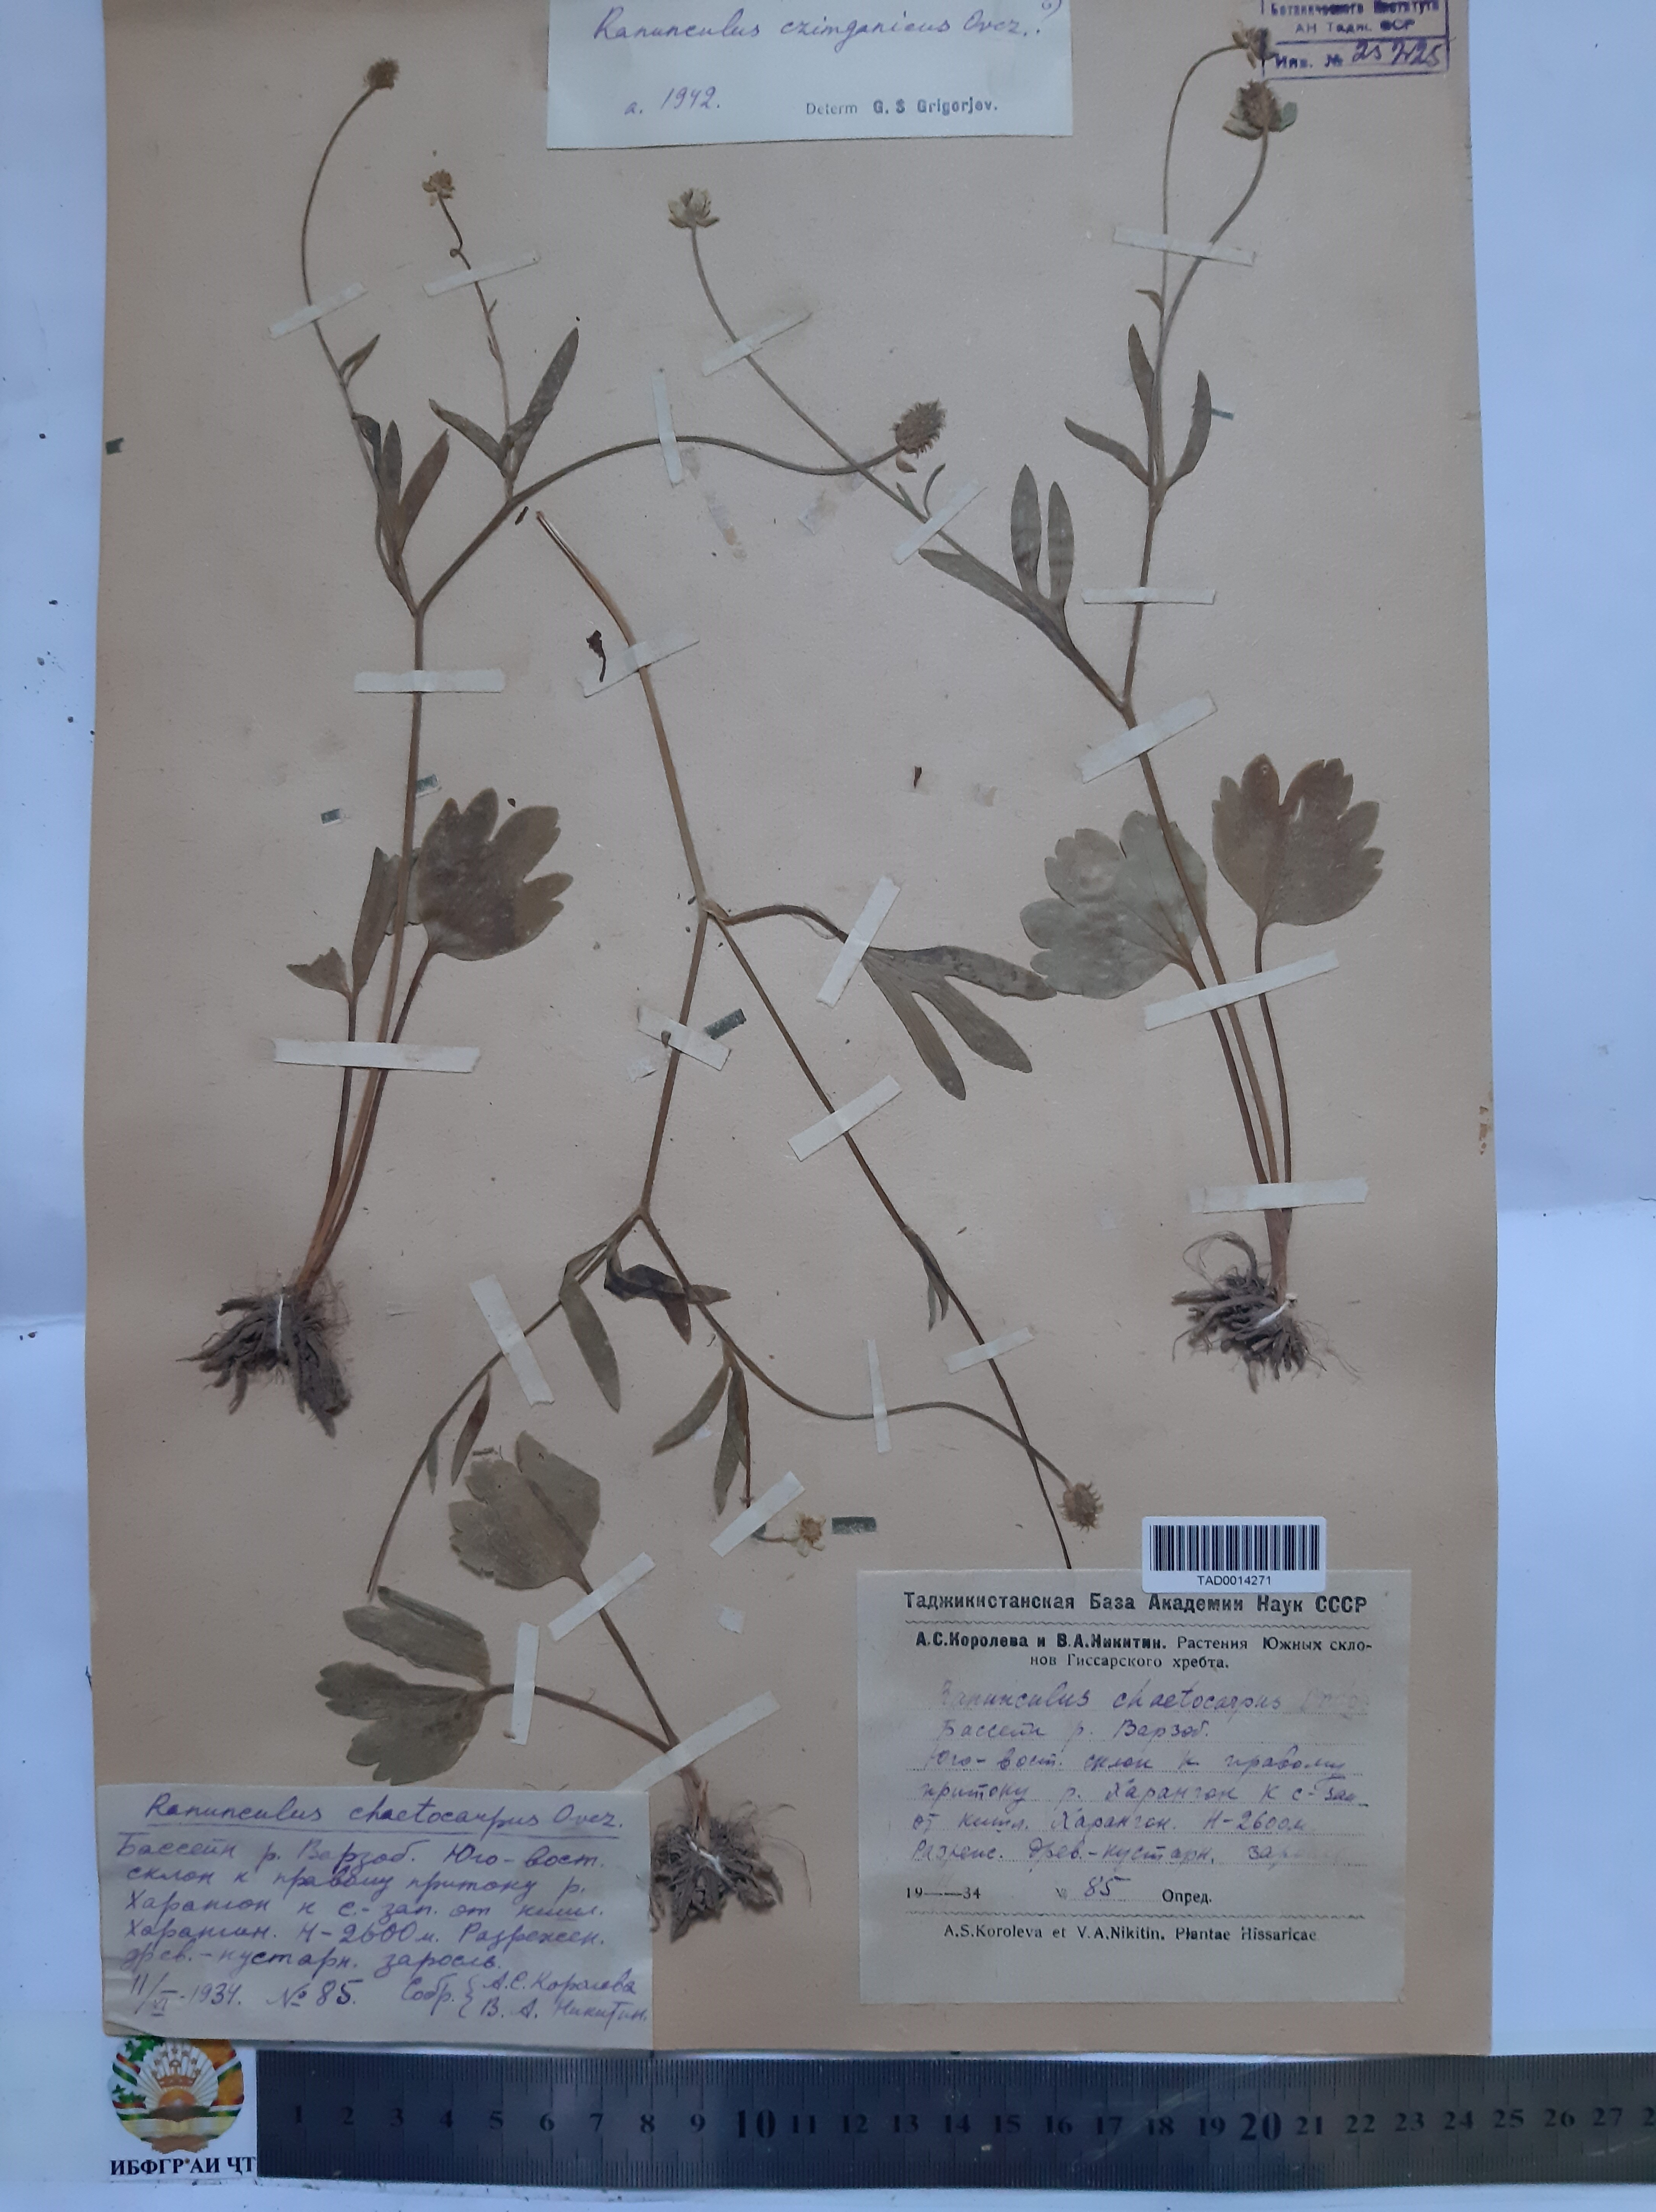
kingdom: Plantae
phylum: Tracheophyta
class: Magnoliopsida
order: Ranunculales
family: Ranunculaceae
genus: Ranunculus
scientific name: Ranunculus
